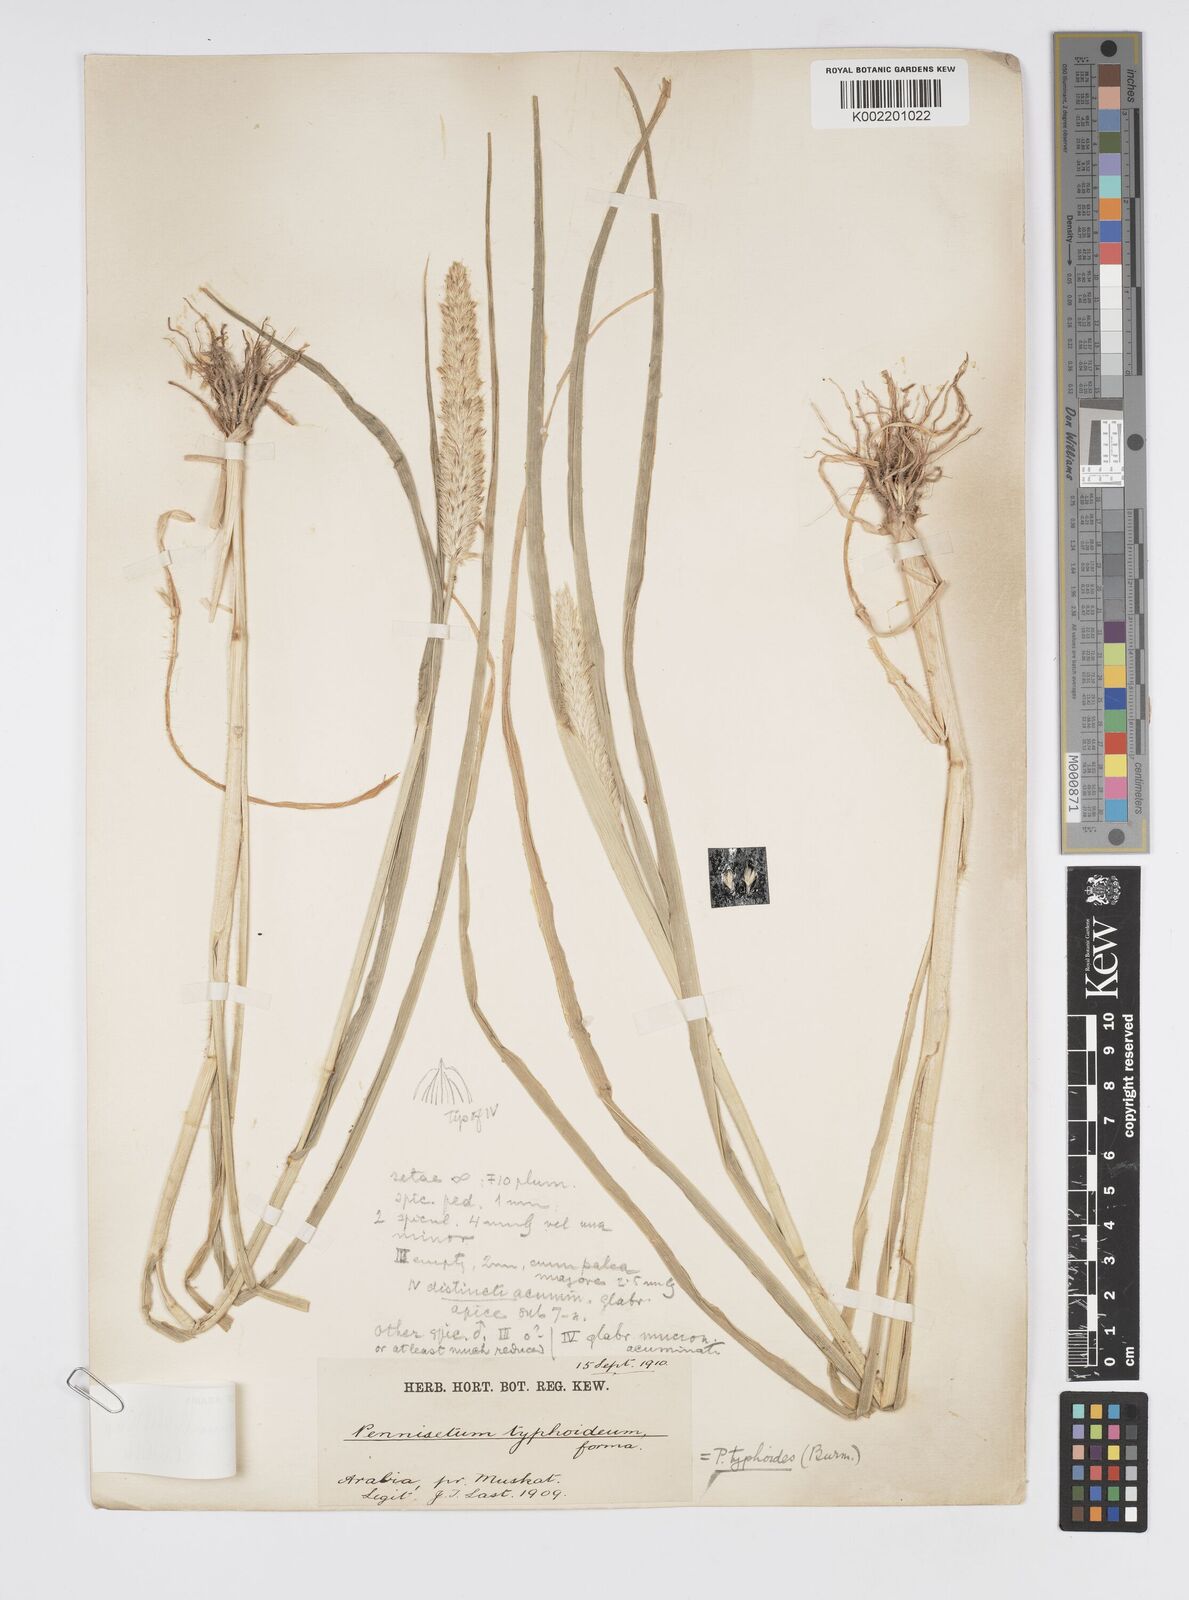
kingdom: Plantae
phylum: Tracheophyta
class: Liliopsida
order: Poales
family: Poaceae
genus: Cenchrus
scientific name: Cenchrus sieberianus
